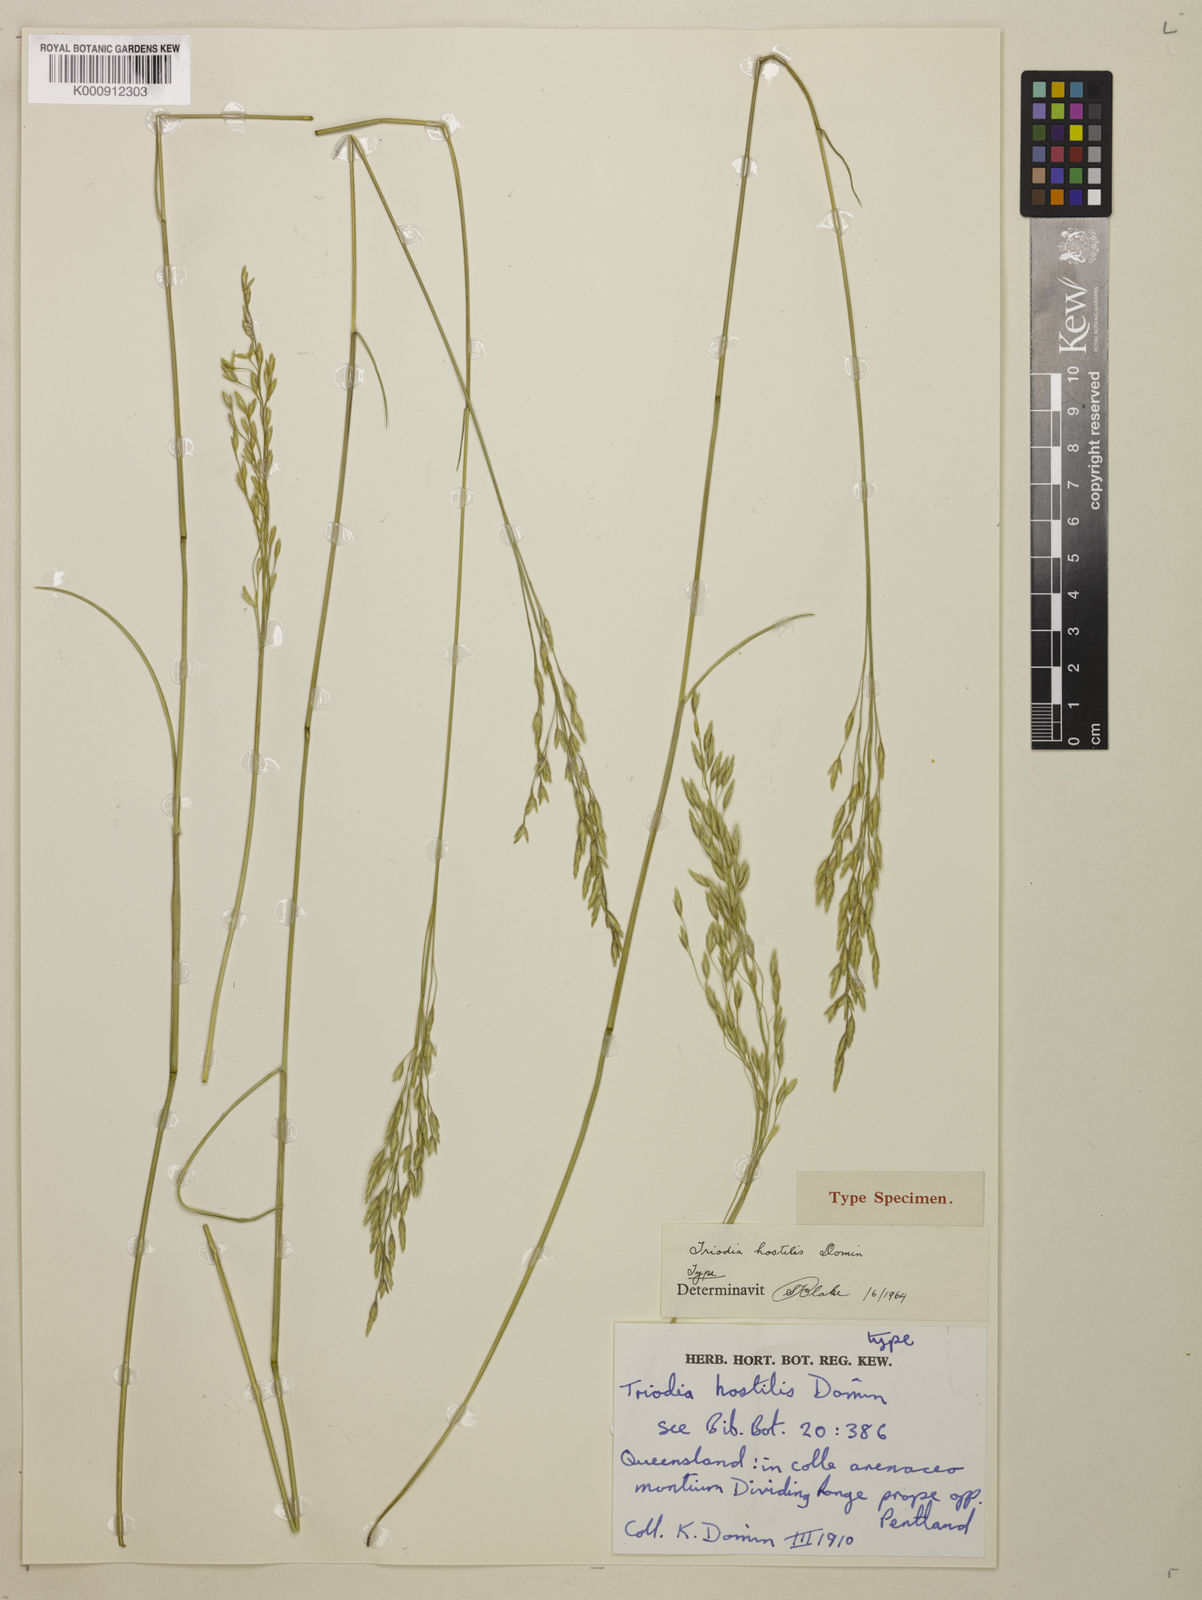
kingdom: Plantae
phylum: Tracheophyta
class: Liliopsida
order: Poales
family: Poaceae
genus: Triodia
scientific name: Triodia mitchellii
